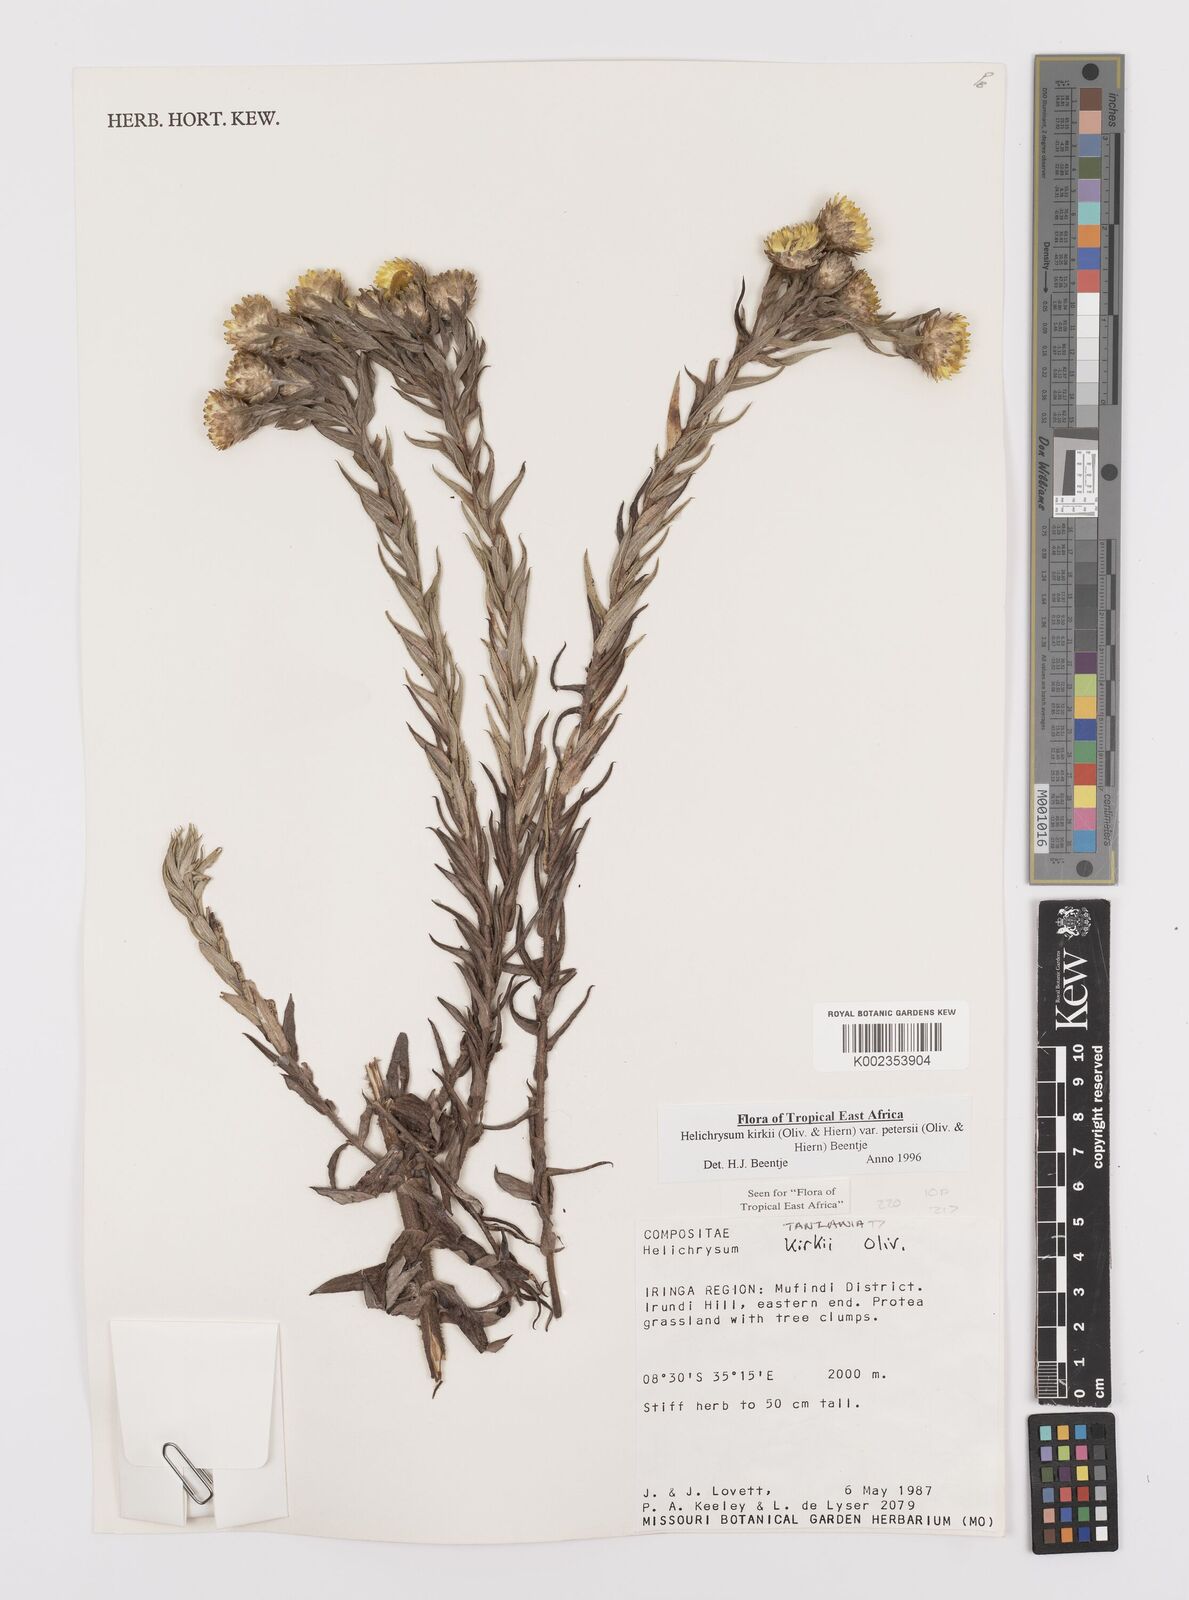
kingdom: Plantae
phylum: Tracheophyta
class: Magnoliopsida
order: Asterales
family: Asteraceae
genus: Helichrysum
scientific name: Helichrysum kirkii
